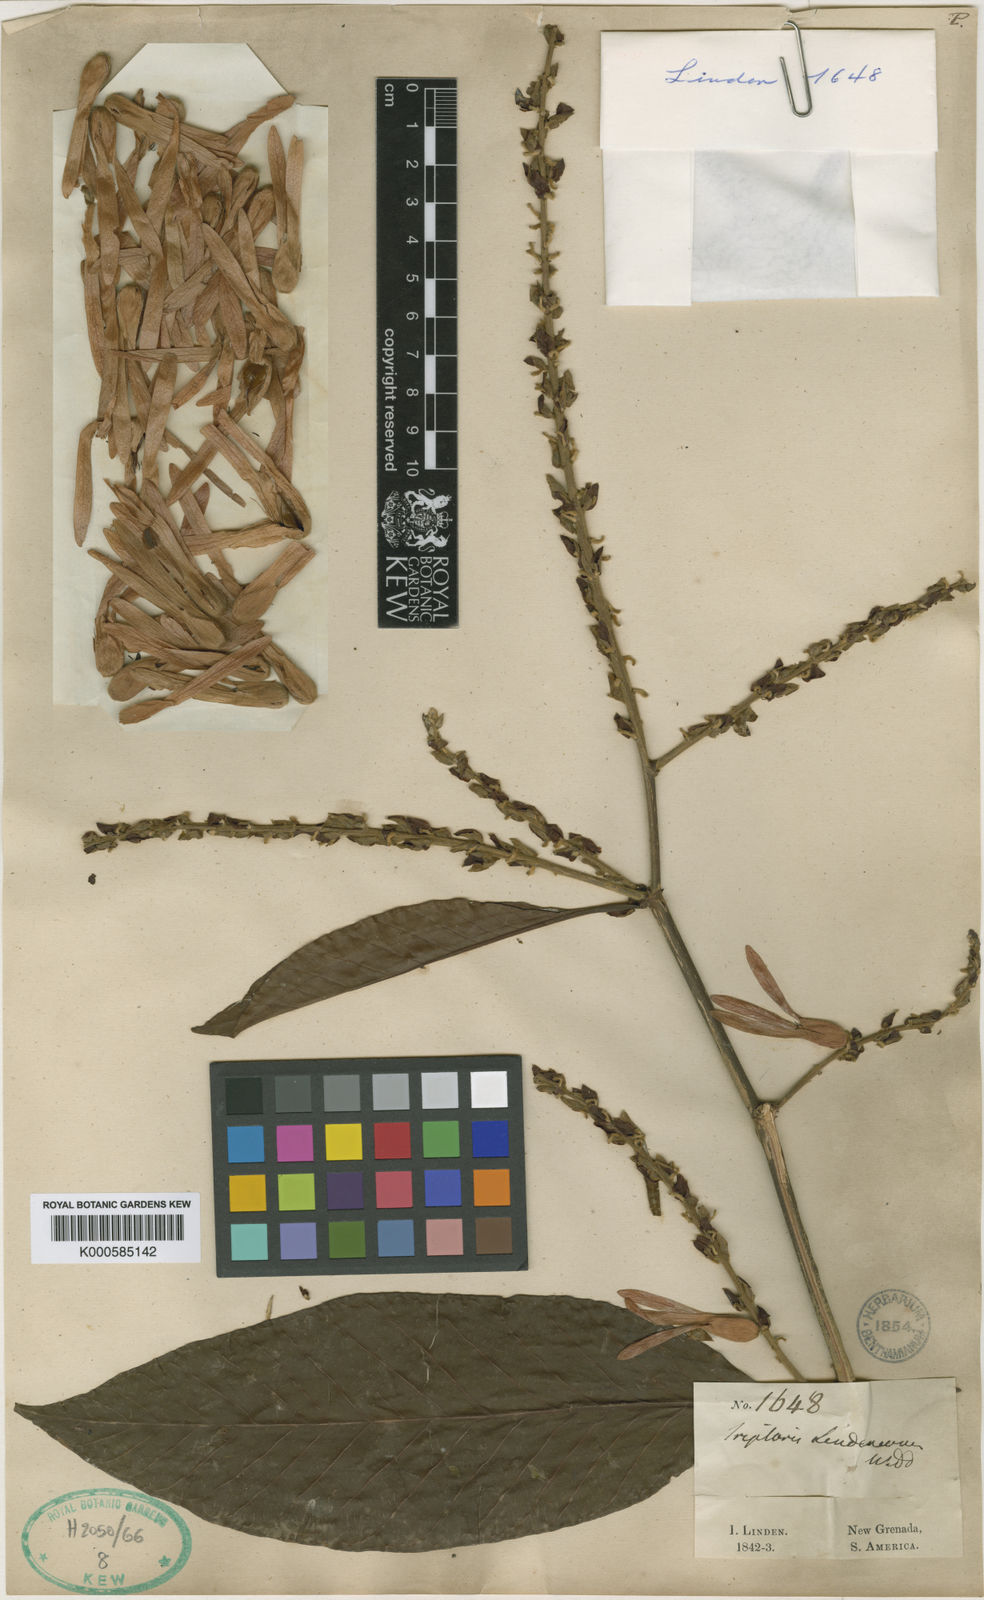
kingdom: Plantae
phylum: Tracheophyta
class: Magnoliopsida
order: Caryophyllales
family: Polygonaceae
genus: Ruprechtia
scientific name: Ruprechtia ramiflora
